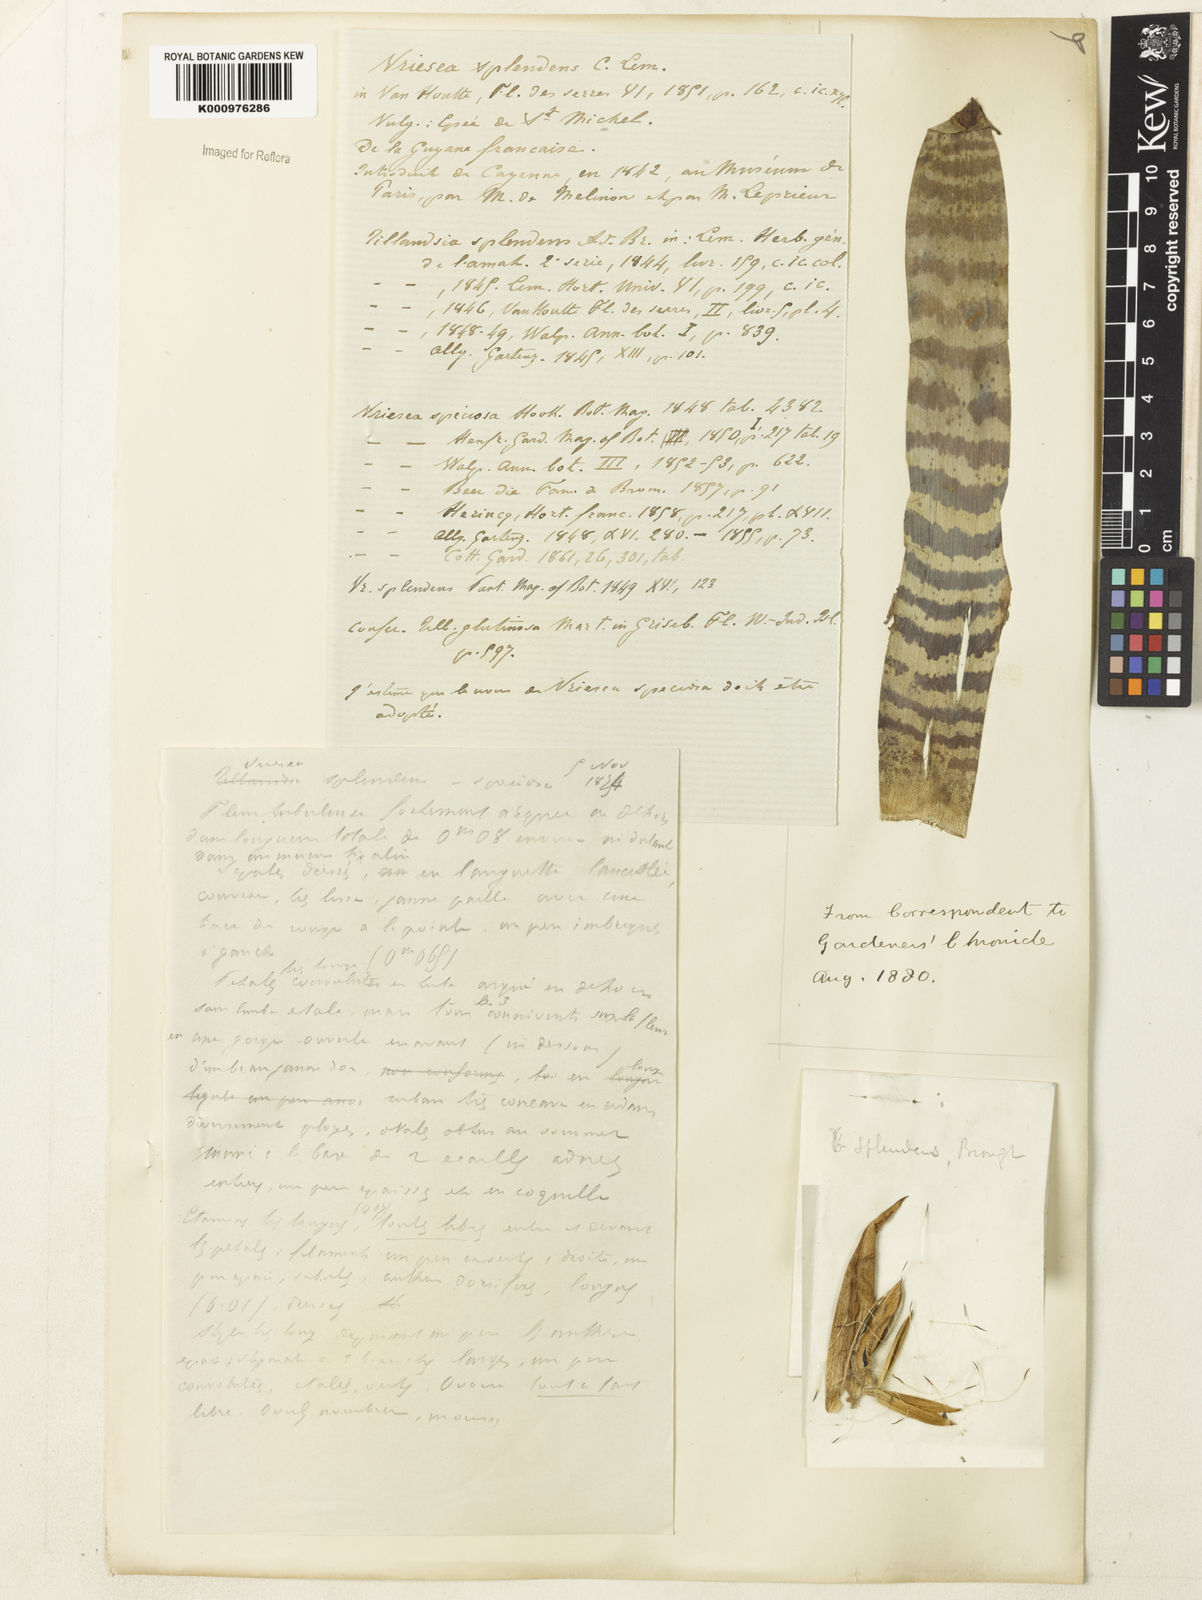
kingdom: Plantae
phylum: Tracheophyta
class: Liliopsida
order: Poales
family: Bromeliaceae
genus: Lutheria
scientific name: Lutheria splendens
